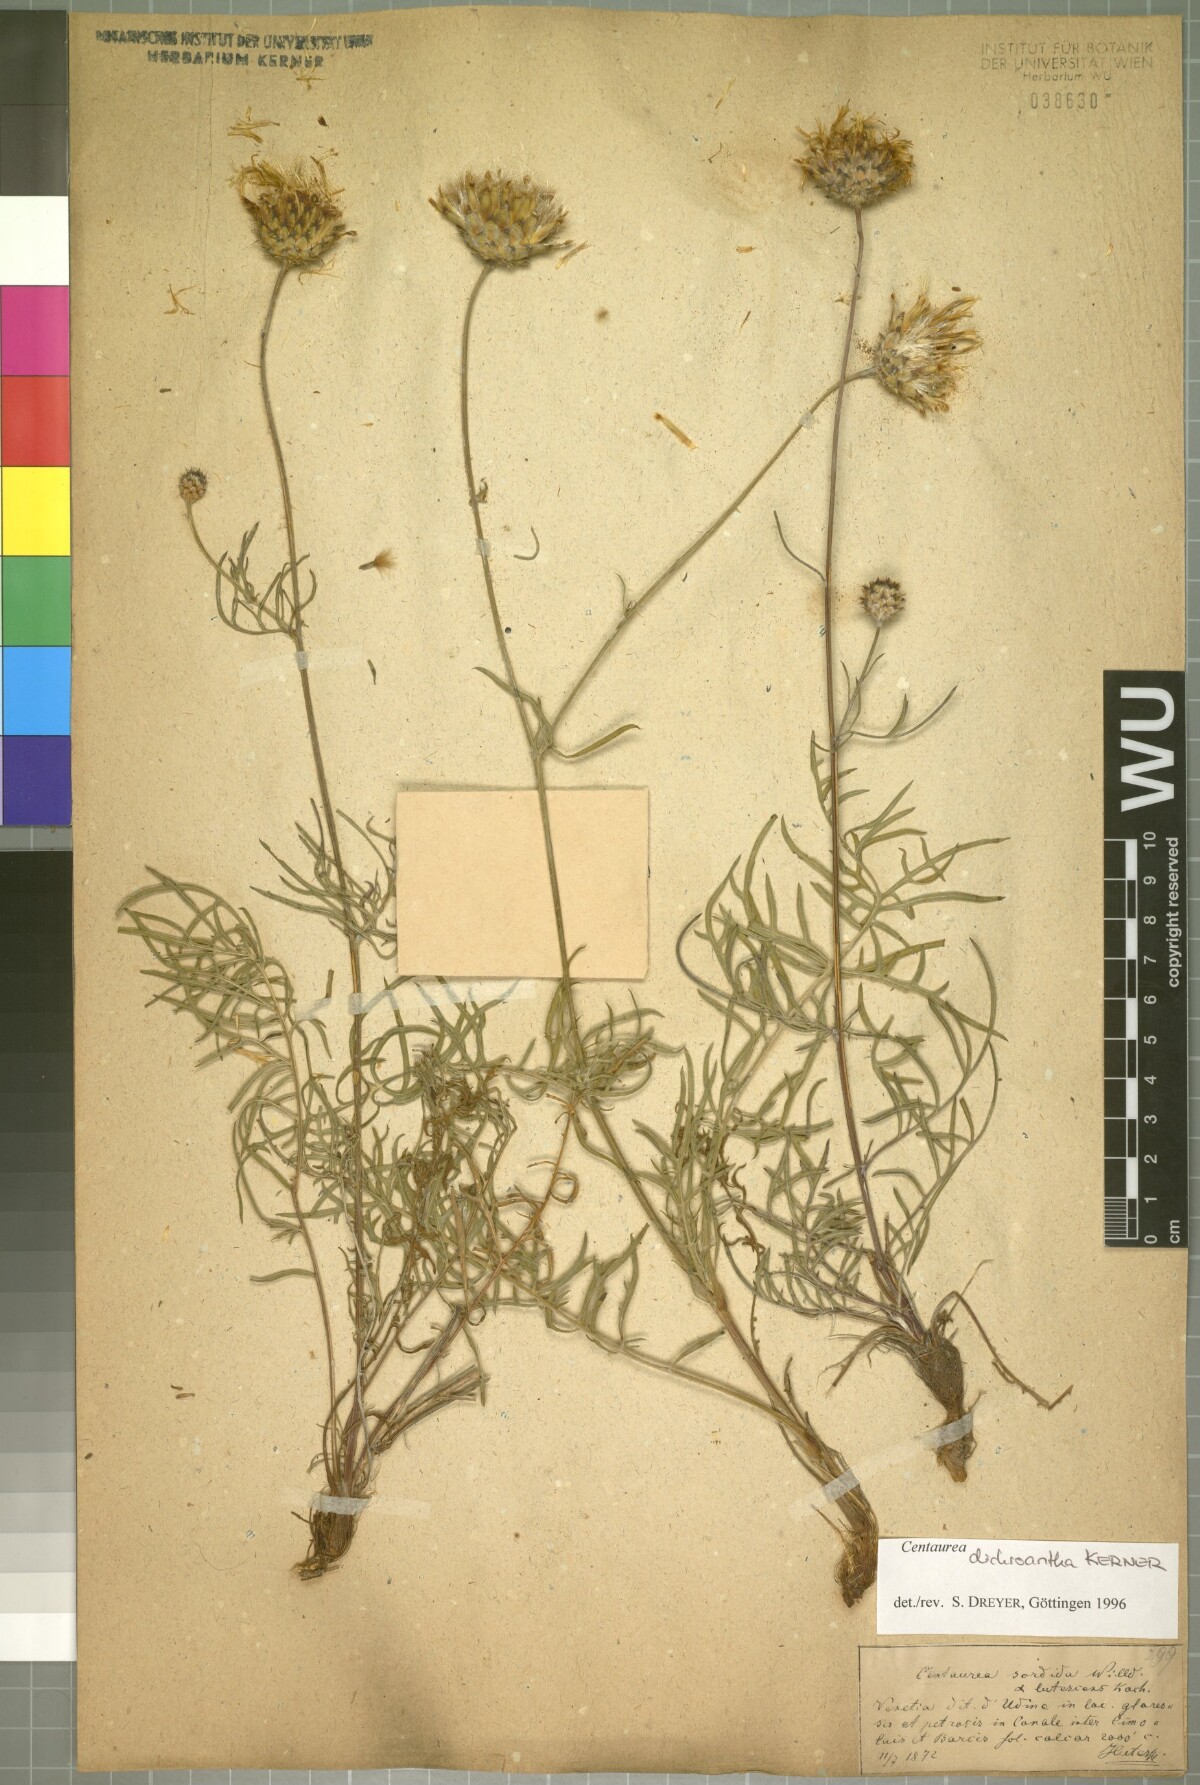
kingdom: Plantae
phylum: Tracheophyta
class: Magnoliopsida
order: Asterales
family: Asteraceae
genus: Centaurea
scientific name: Centaurea dichroantha
